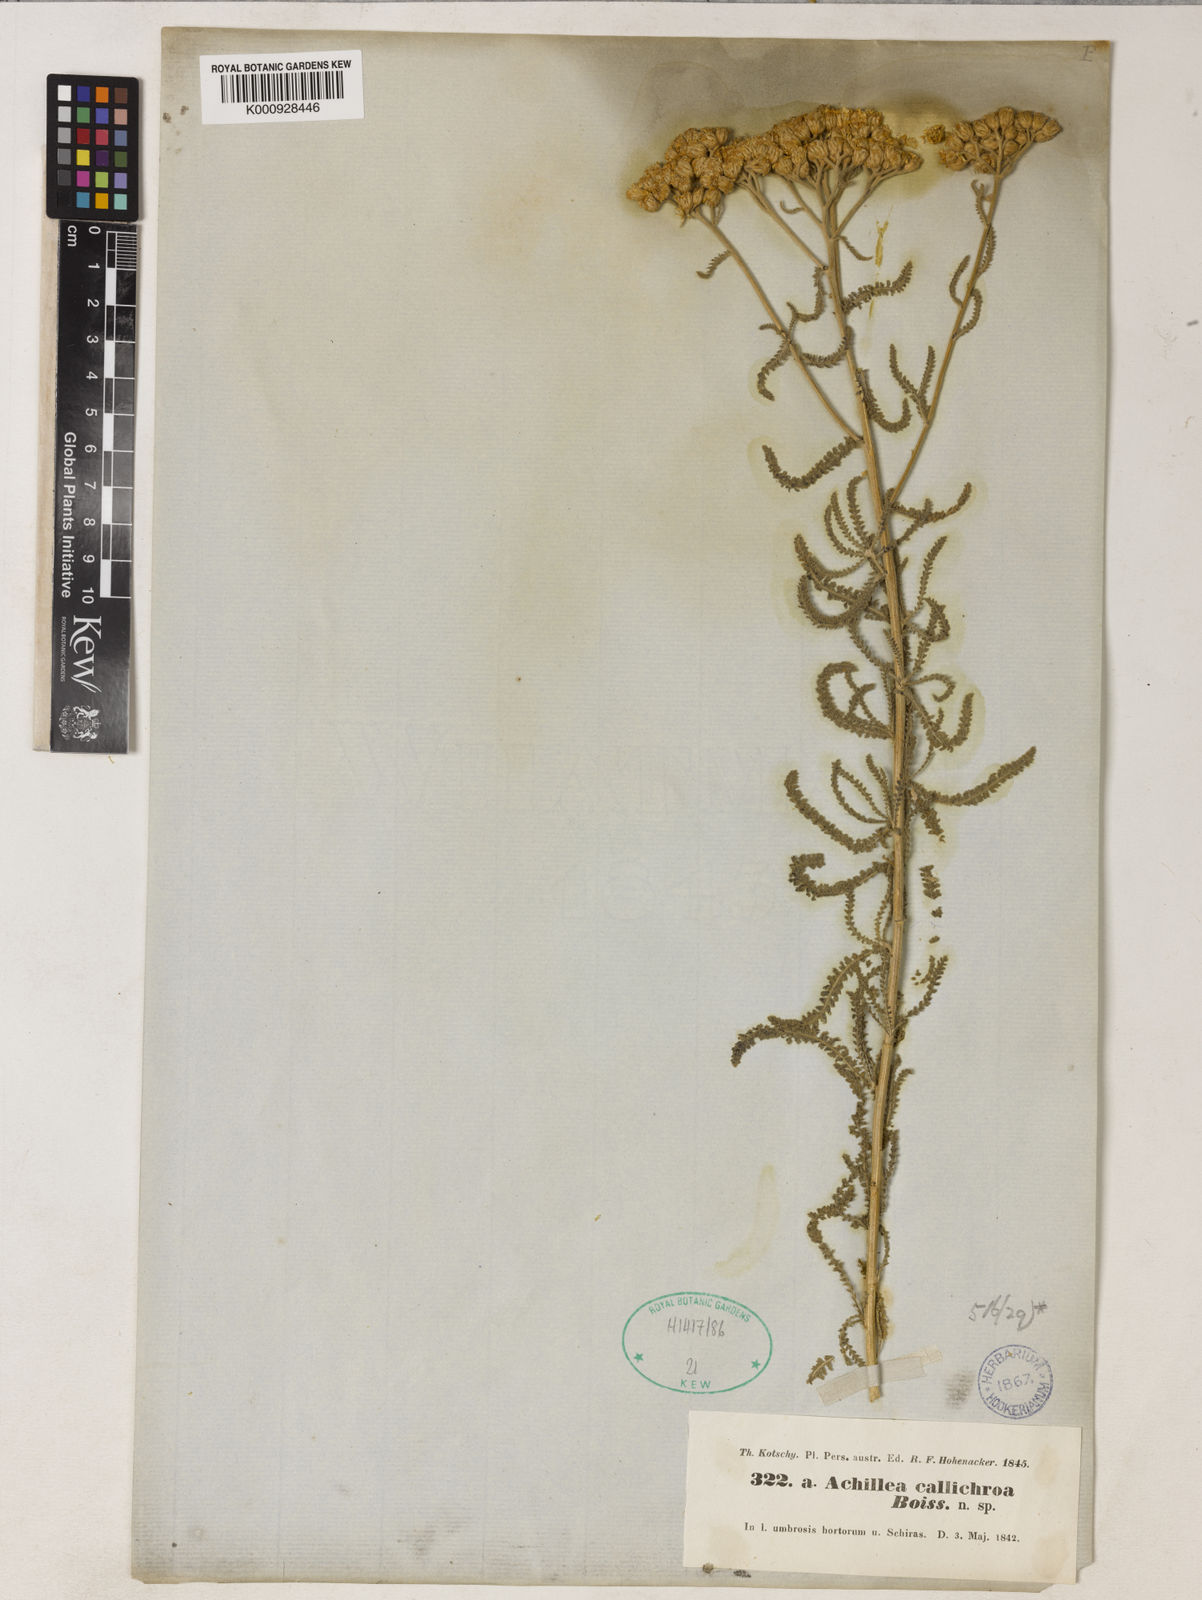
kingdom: Plantae
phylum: Tracheophyta
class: Magnoliopsida
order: Asterales
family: Asteraceae
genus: Achillea
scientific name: Achillea callichroa
